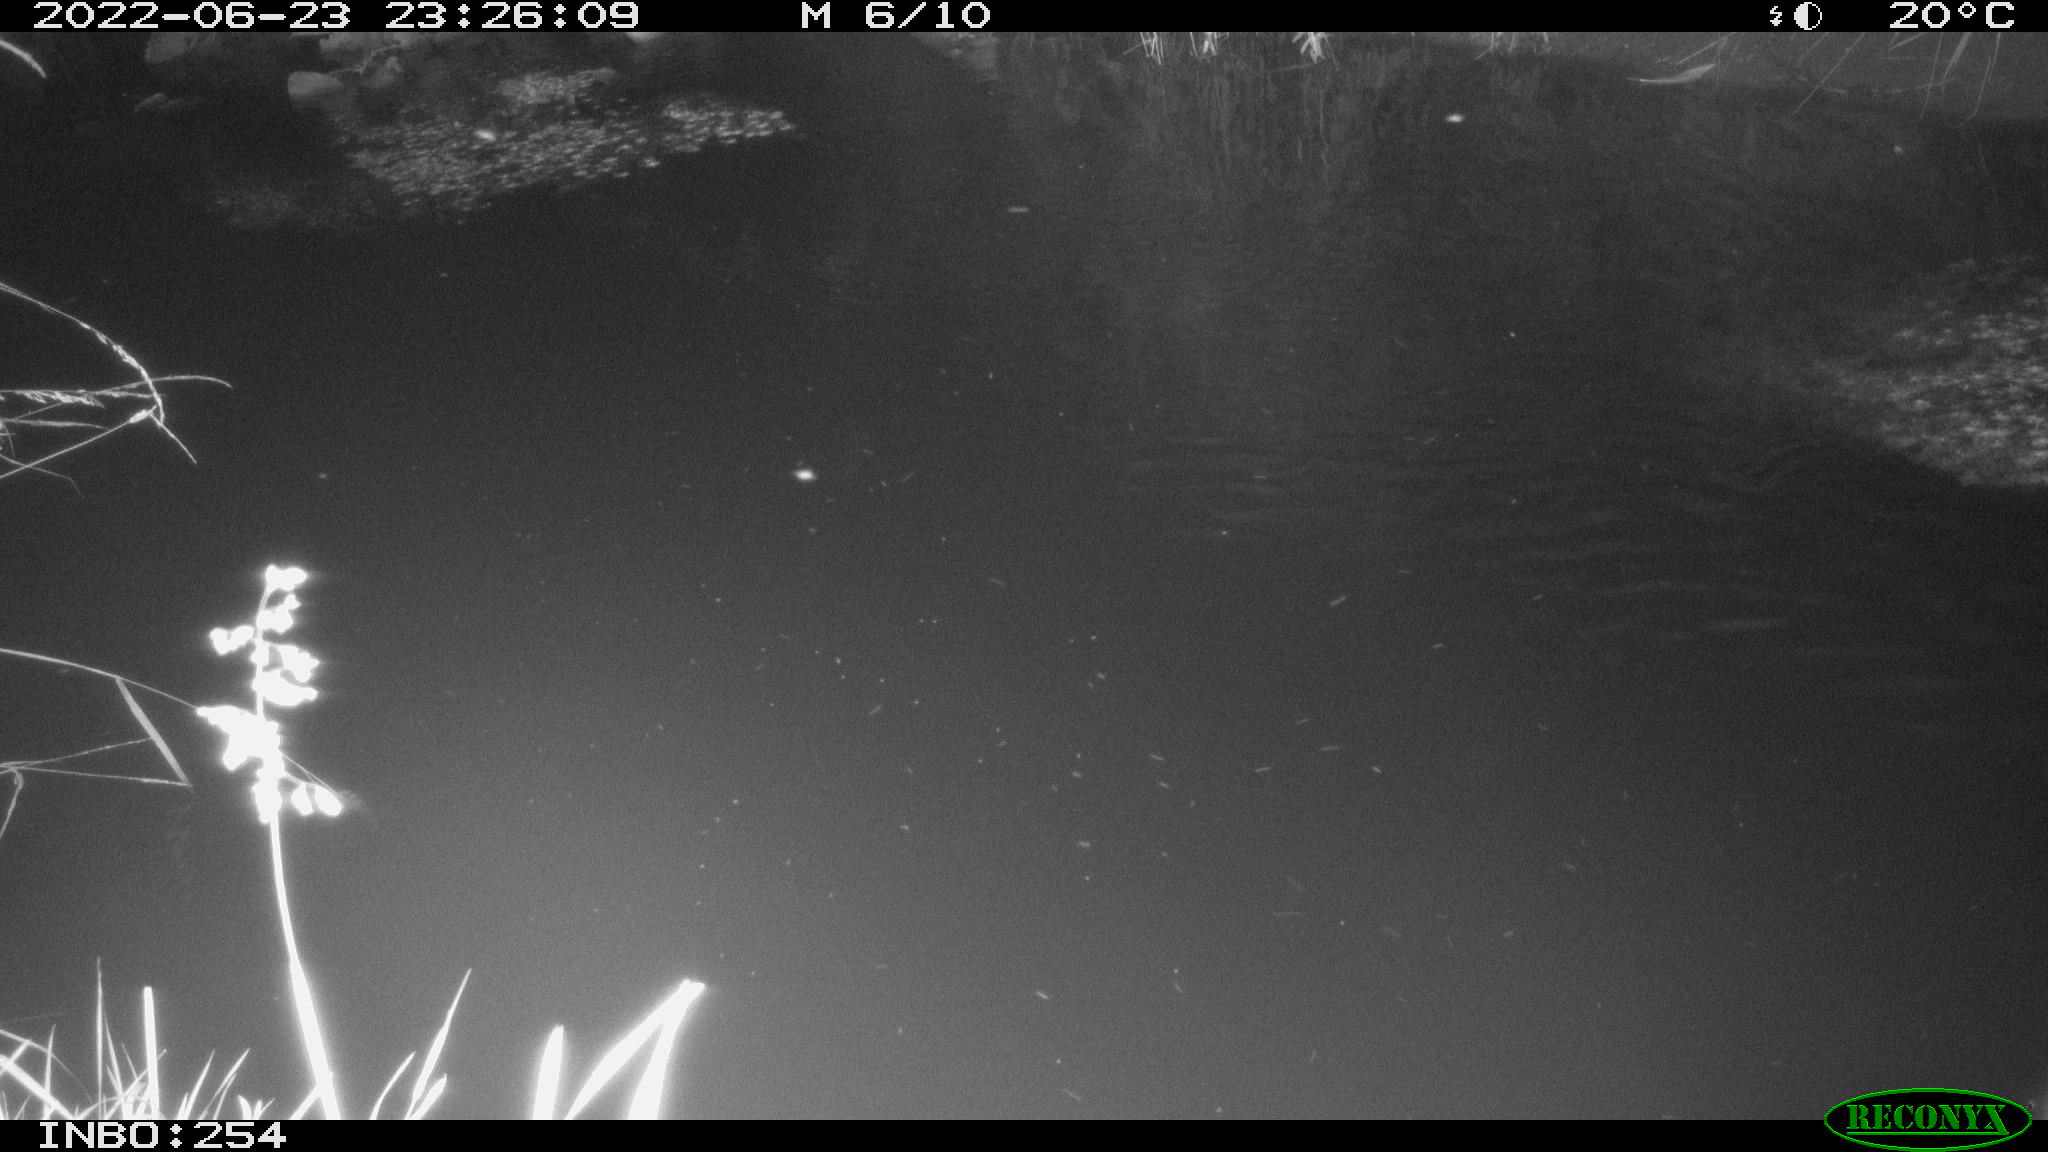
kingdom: Animalia
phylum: Chordata
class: Aves
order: Anseriformes
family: Anatidae
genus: Anas
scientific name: Anas platyrhynchos
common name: Mallard
